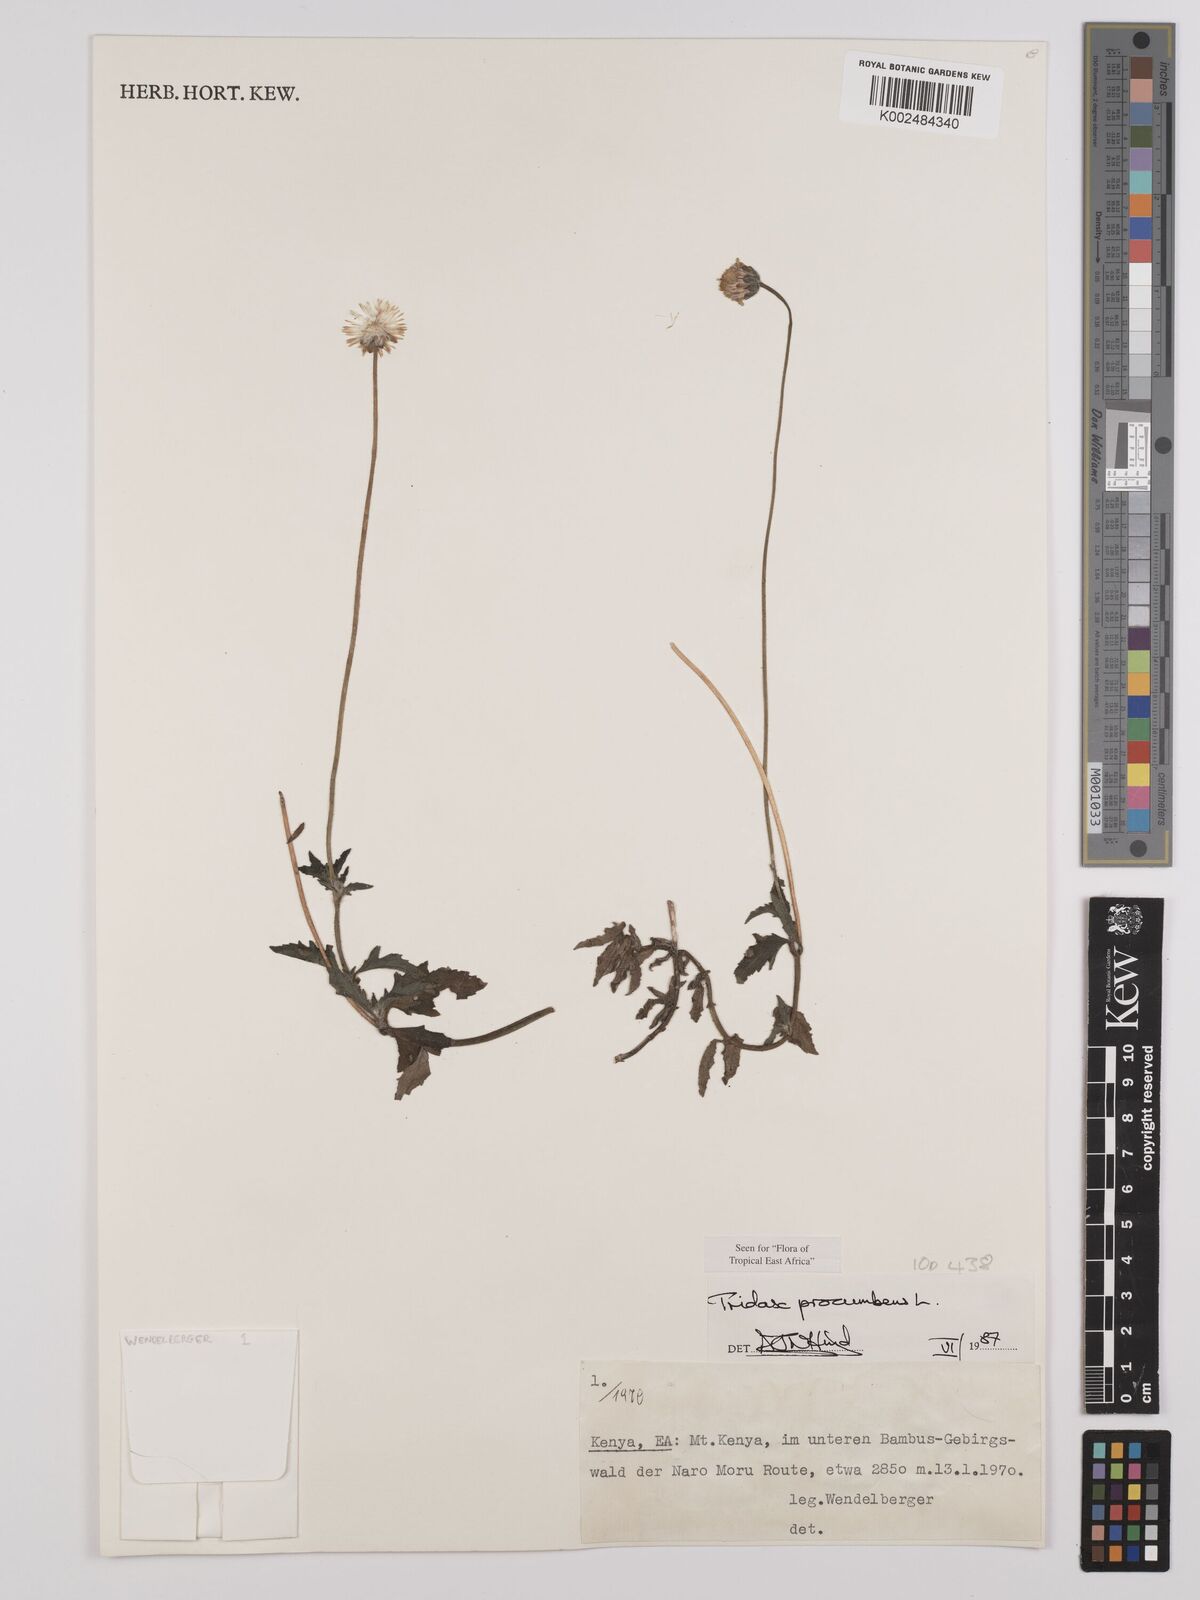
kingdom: Plantae
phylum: Tracheophyta
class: Magnoliopsida
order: Asterales
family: Asteraceae
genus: Tridax
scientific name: Tridax procumbens
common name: Coatbuttons
